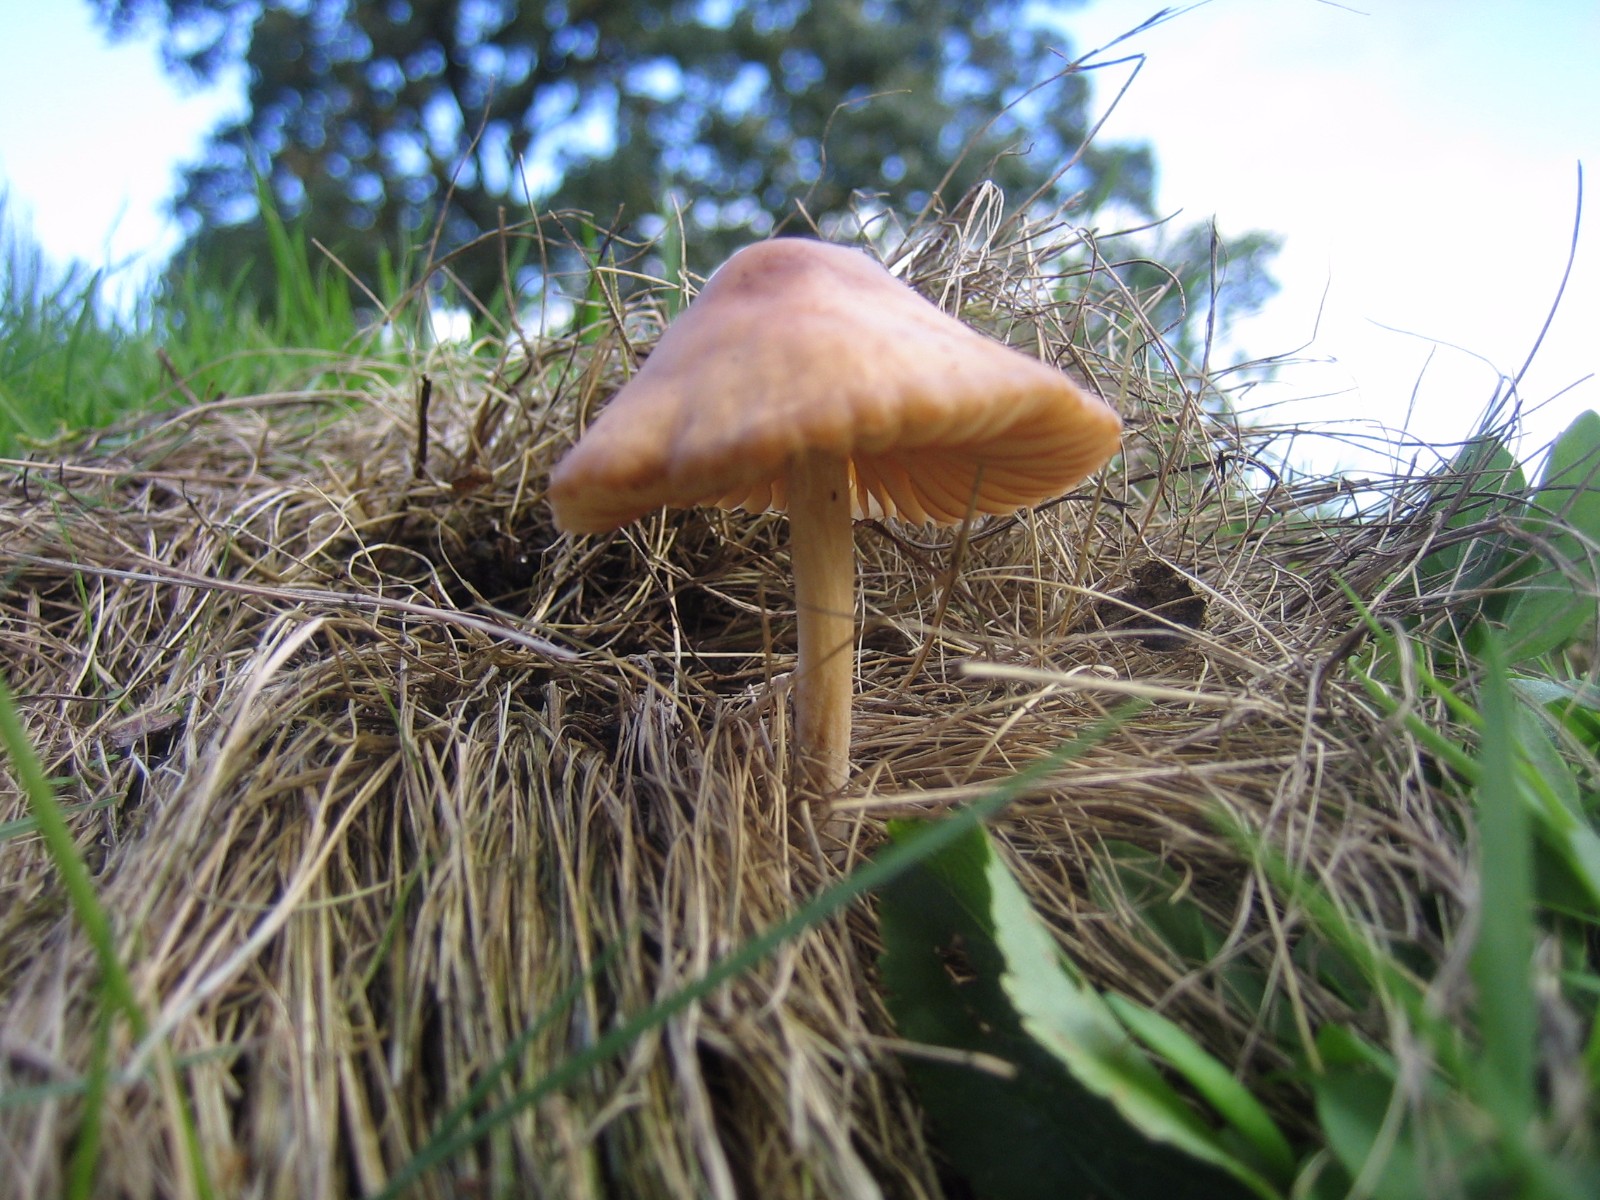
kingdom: Fungi
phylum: Basidiomycota
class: Agaricomycetes
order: Agaricales
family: Marasmiaceae
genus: Marasmius
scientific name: Marasmius oreades
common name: elledans-bruskhat
